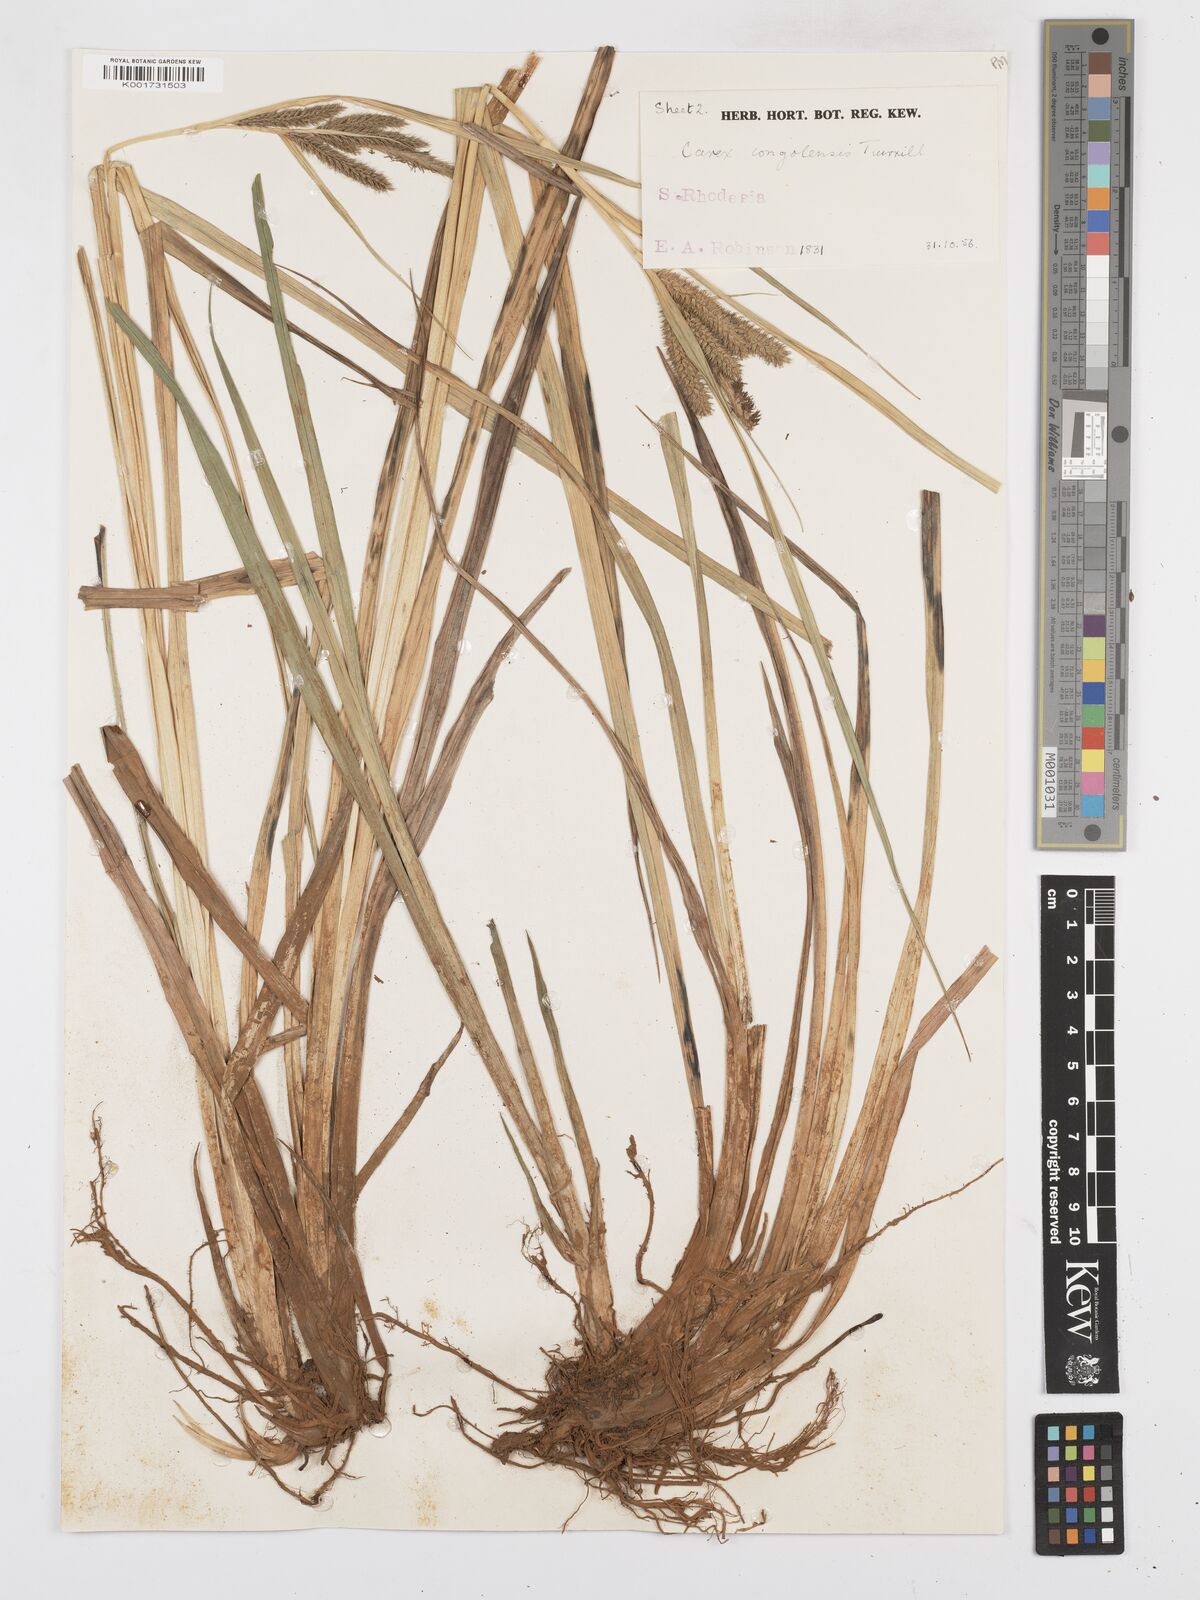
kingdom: Plantae
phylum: Tracheophyta
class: Liliopsida
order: Poales
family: Cyperaceae
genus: Carex
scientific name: Carex congolensis
